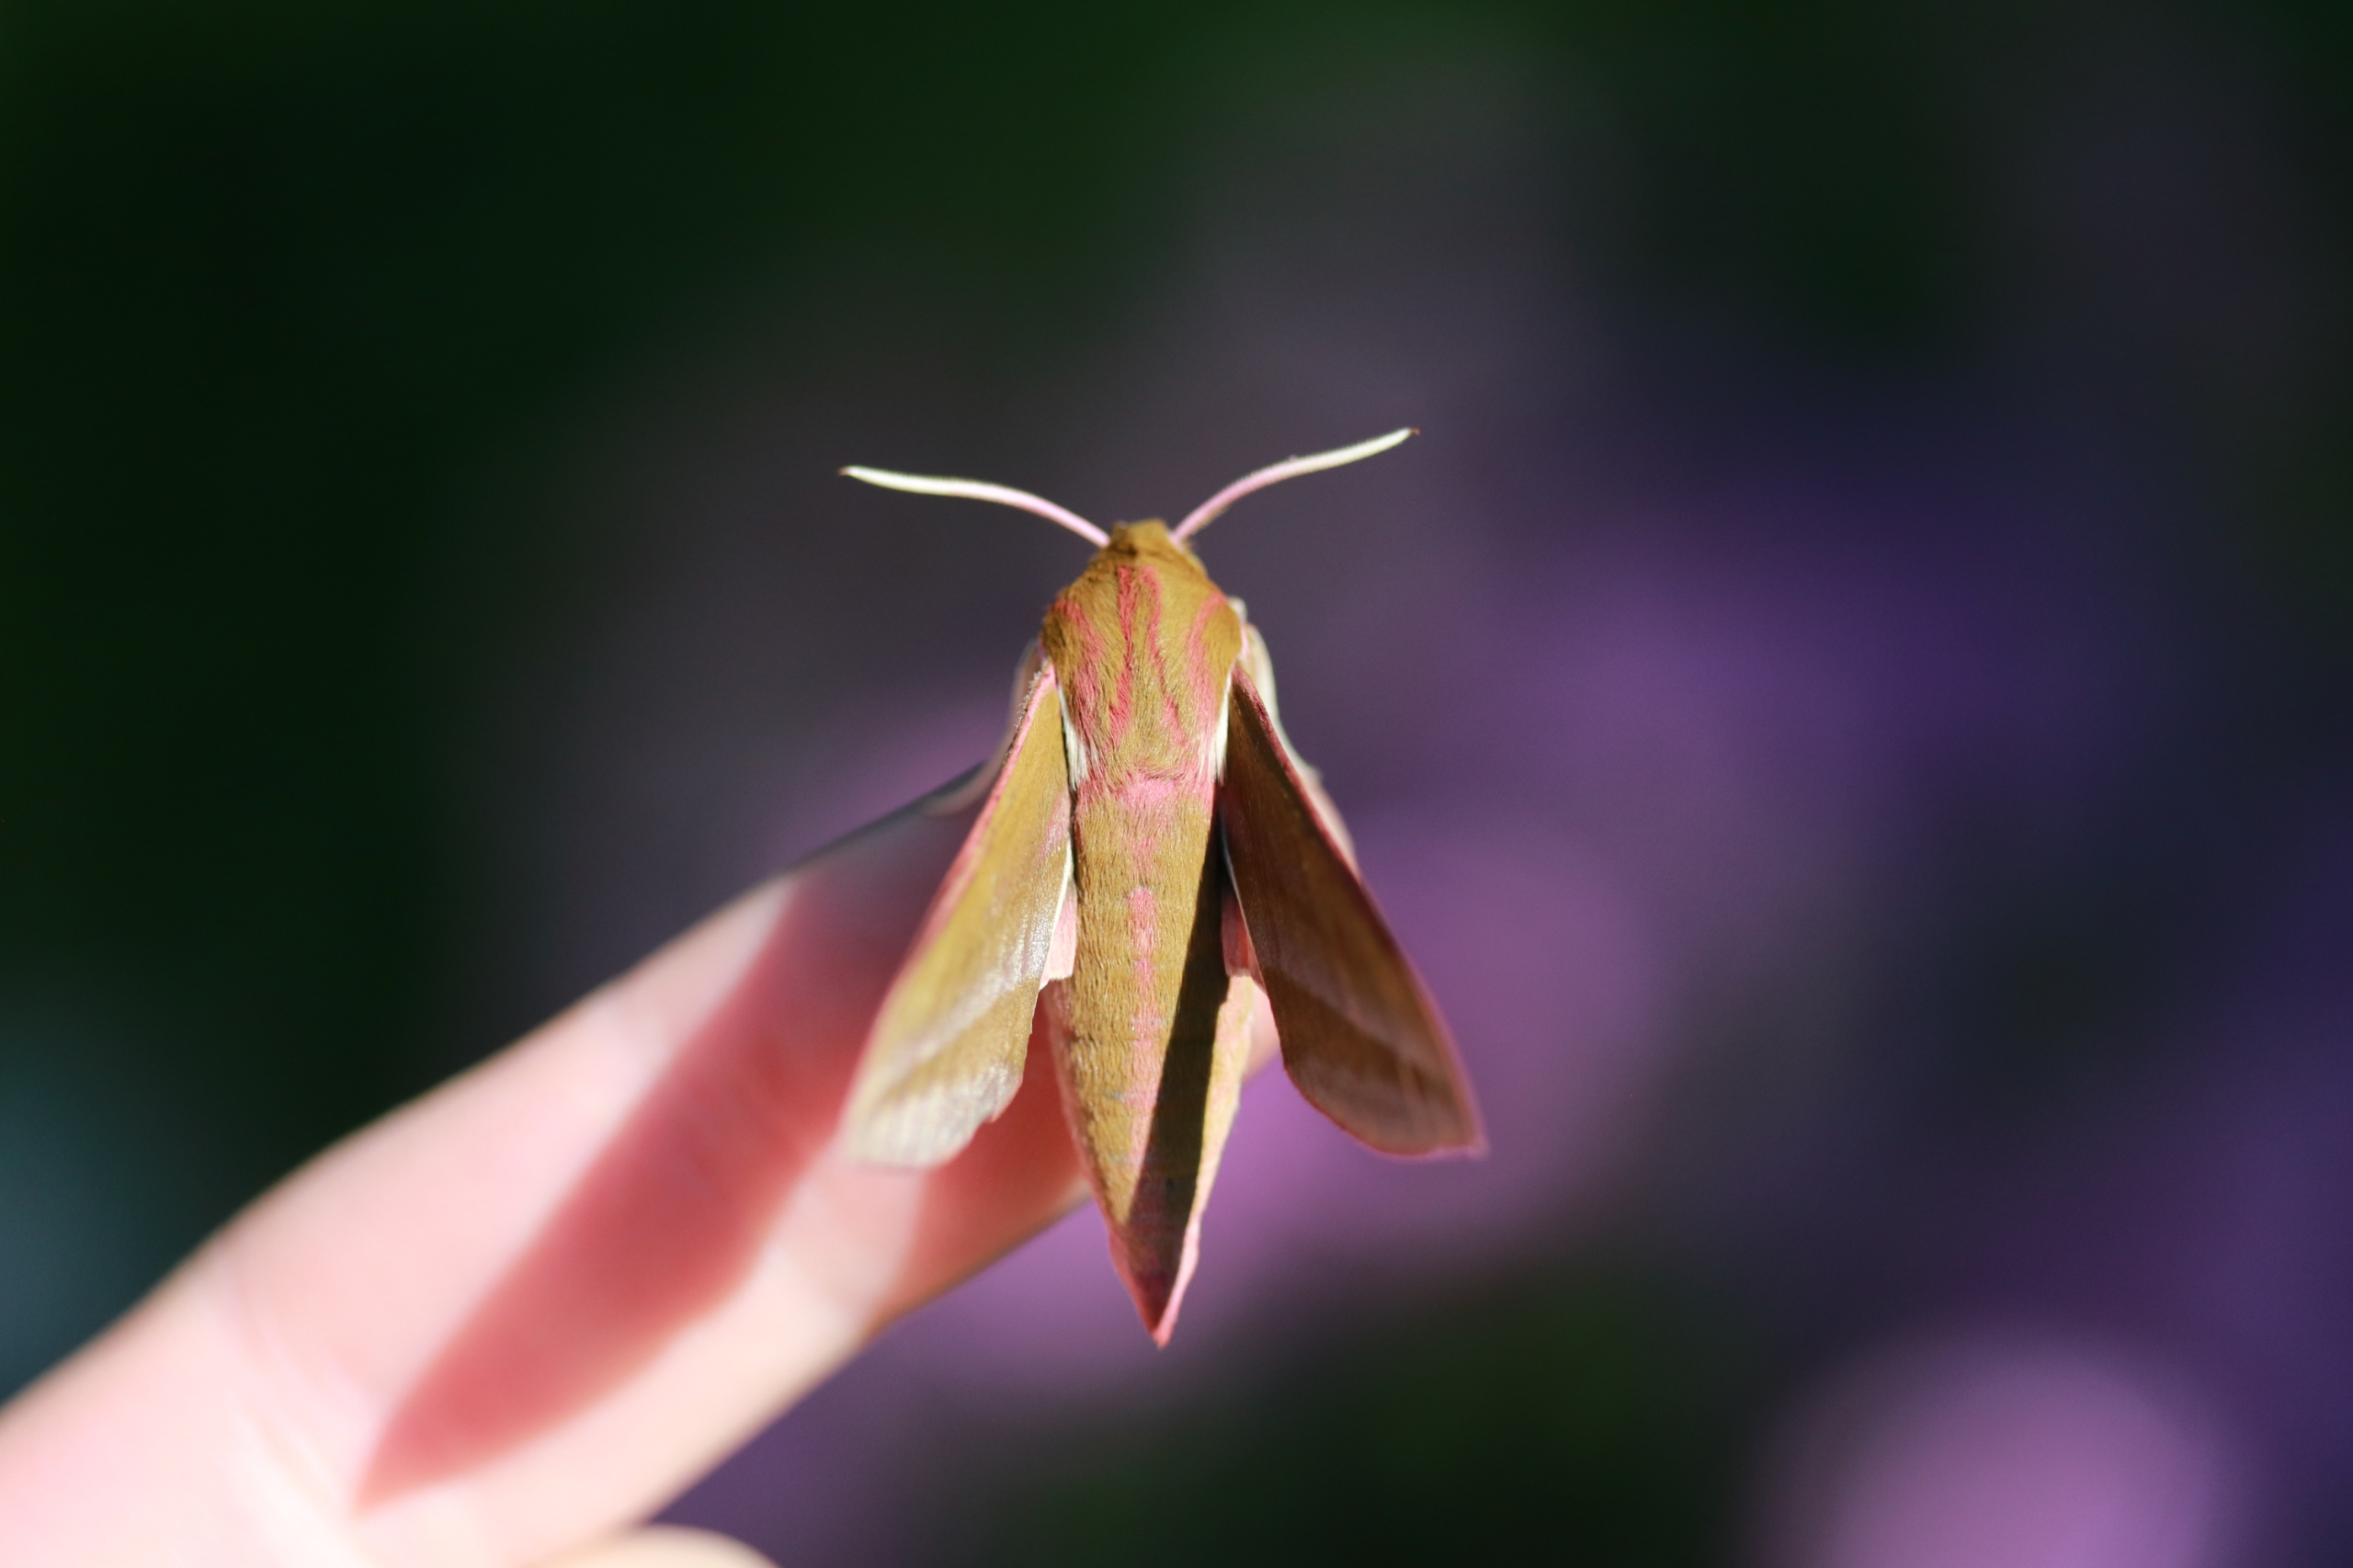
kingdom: Animalia
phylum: Arthropoda
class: Insecta
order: Lepidoptera
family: Sphingidae
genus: Deilephila
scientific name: Deilephila elpenor
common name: Dueurtsværmer
